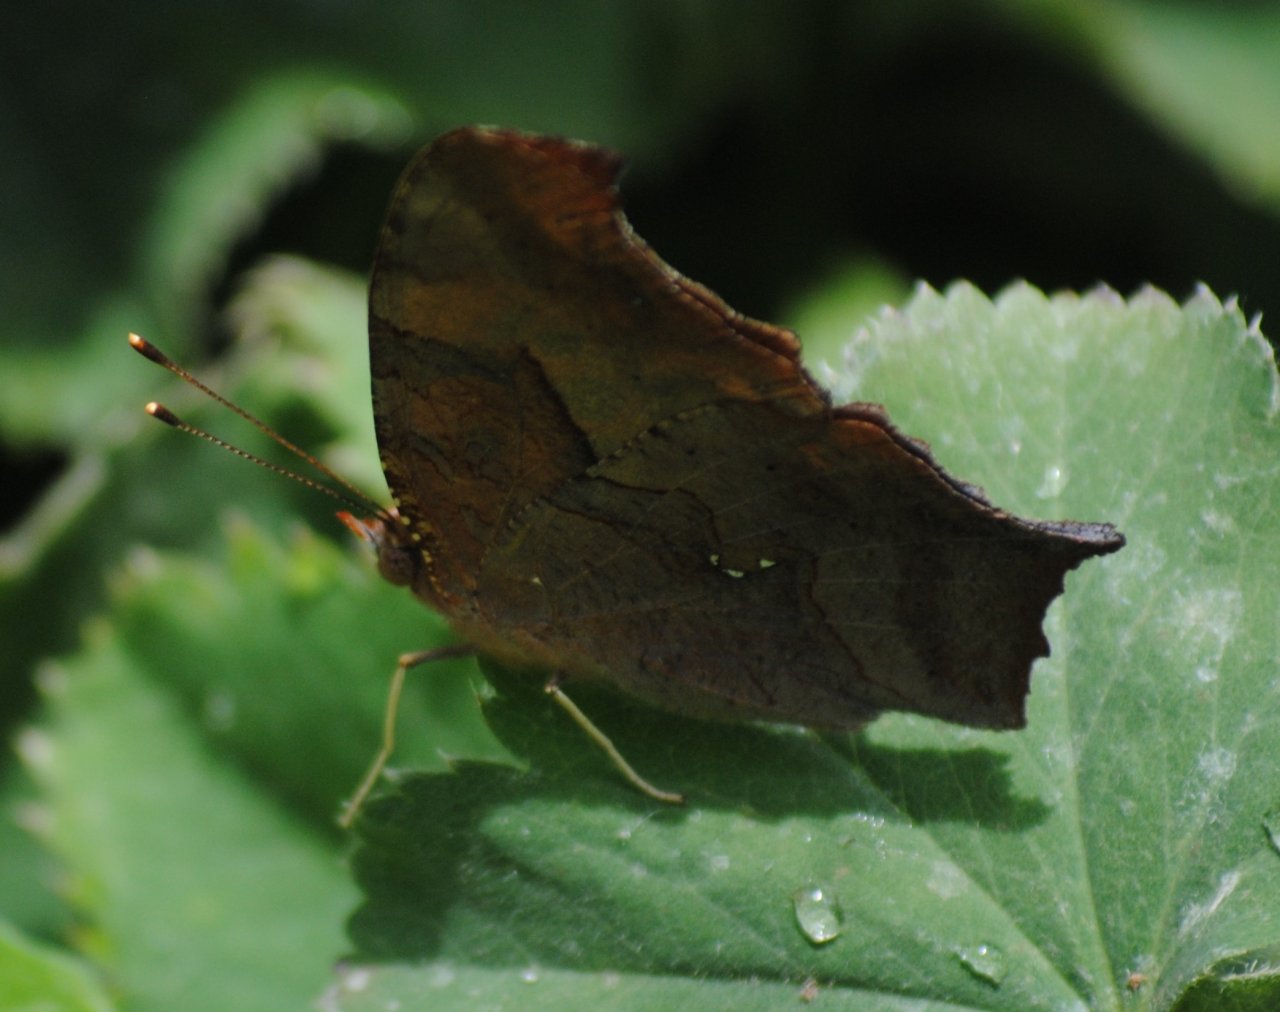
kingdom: Animalia
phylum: Arthropoda
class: Insecta
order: Lepidoptera
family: Nymphalidae
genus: Polygonia
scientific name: Polygonia interrogationis
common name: Question Mark
